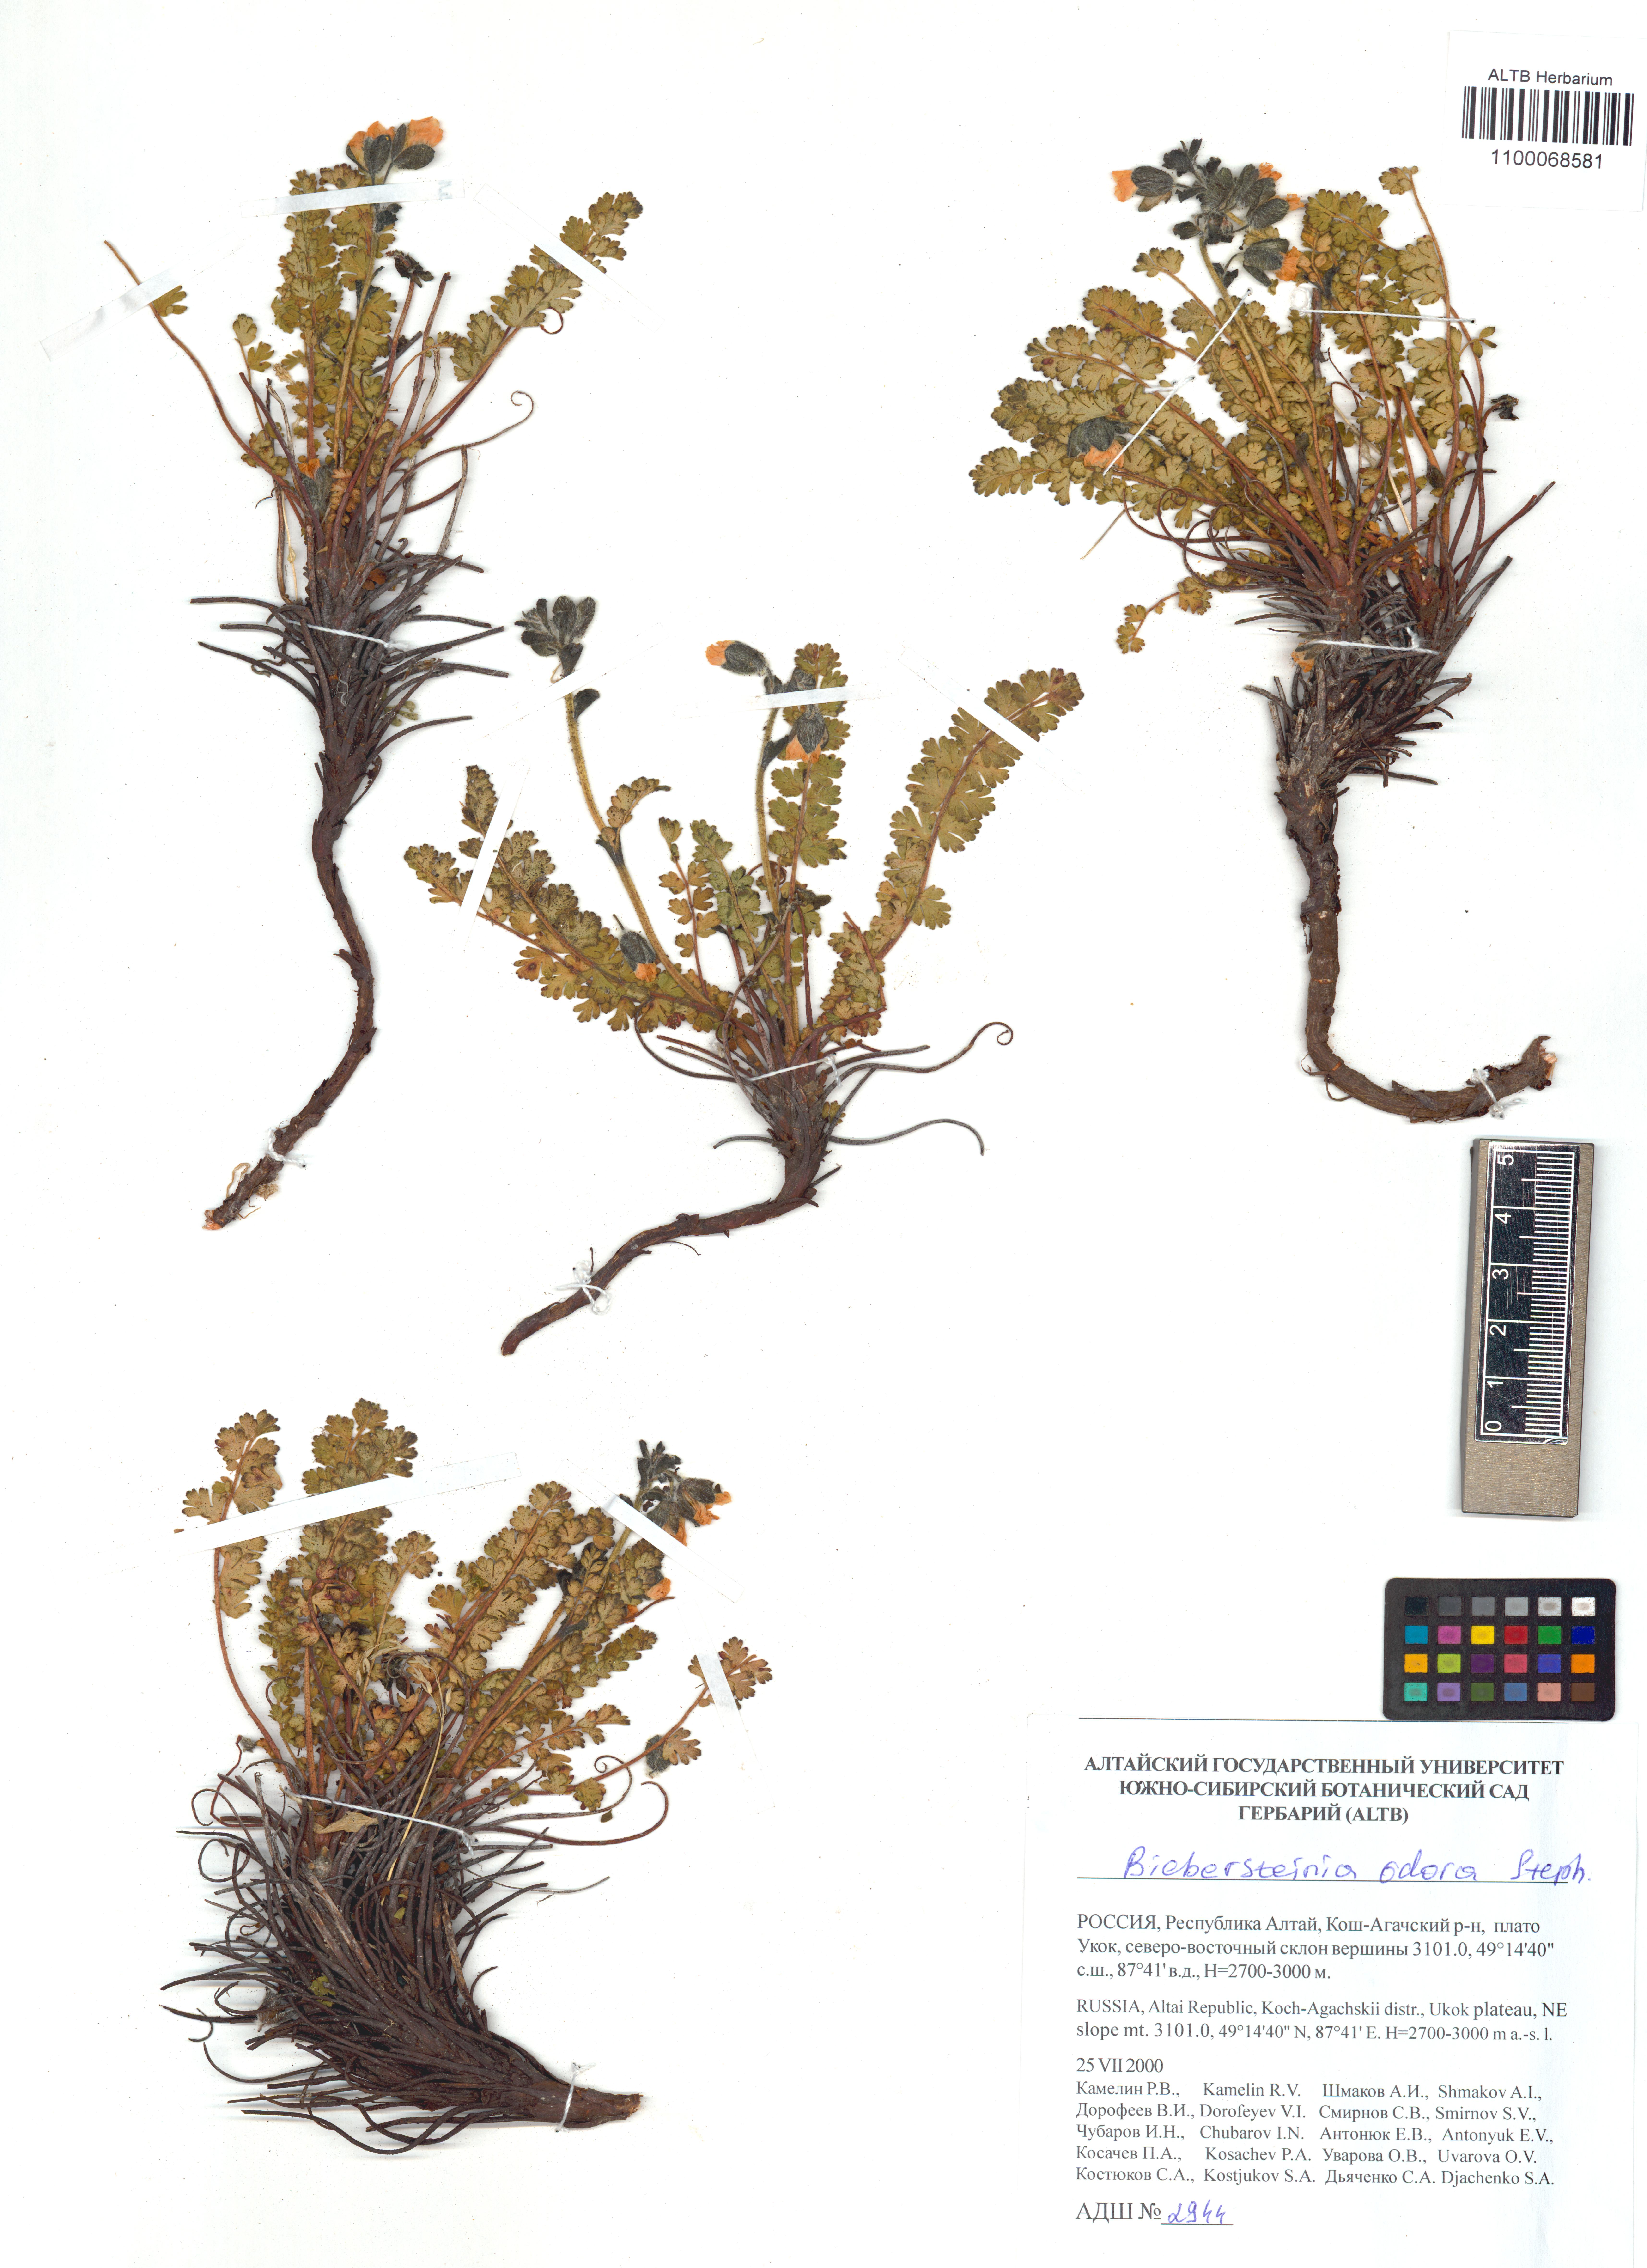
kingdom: Plantae
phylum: Tracheophyta
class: Magnoliopsida
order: Sapindales
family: Biebersteiniaceae
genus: Biebersteinia
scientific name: Biebersteinia odora
